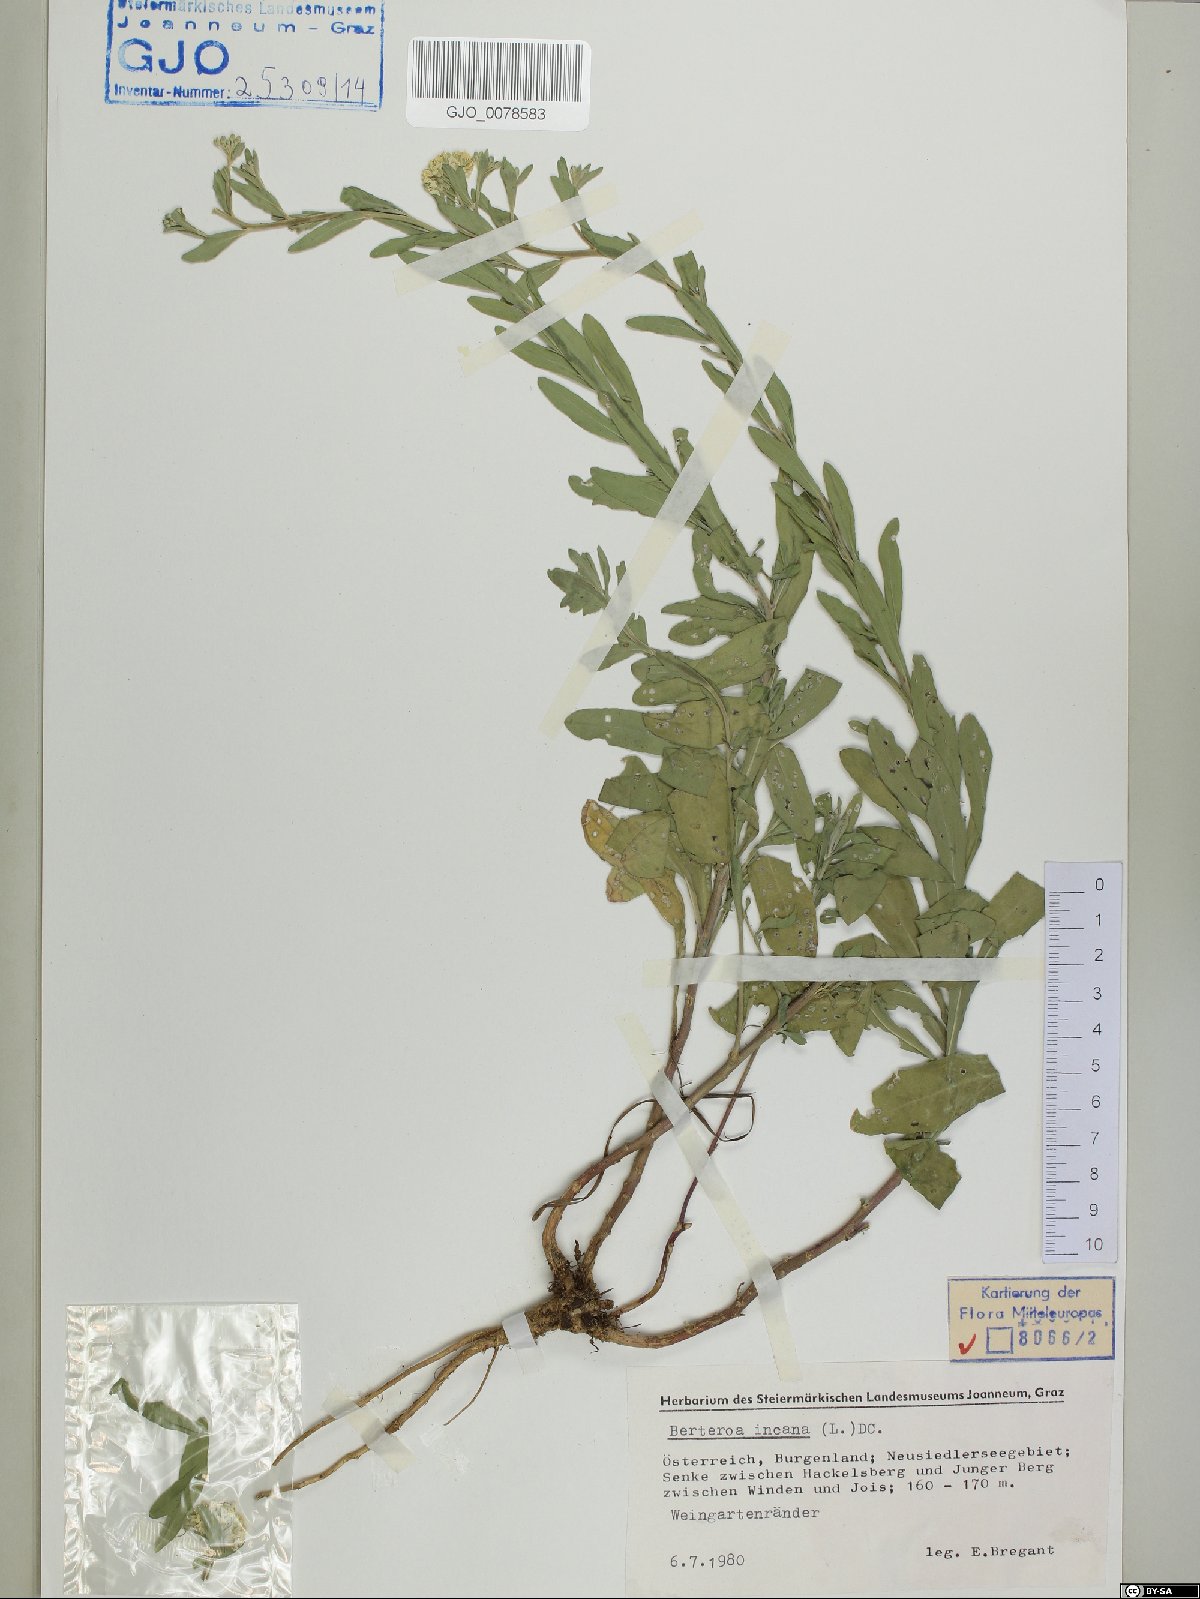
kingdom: Plantae
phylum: Tracheophyta
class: Magnoliopsida
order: Brassicales
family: Brassicaceae
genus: Berteroa
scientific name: Berteroa incana
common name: Hoary alison
